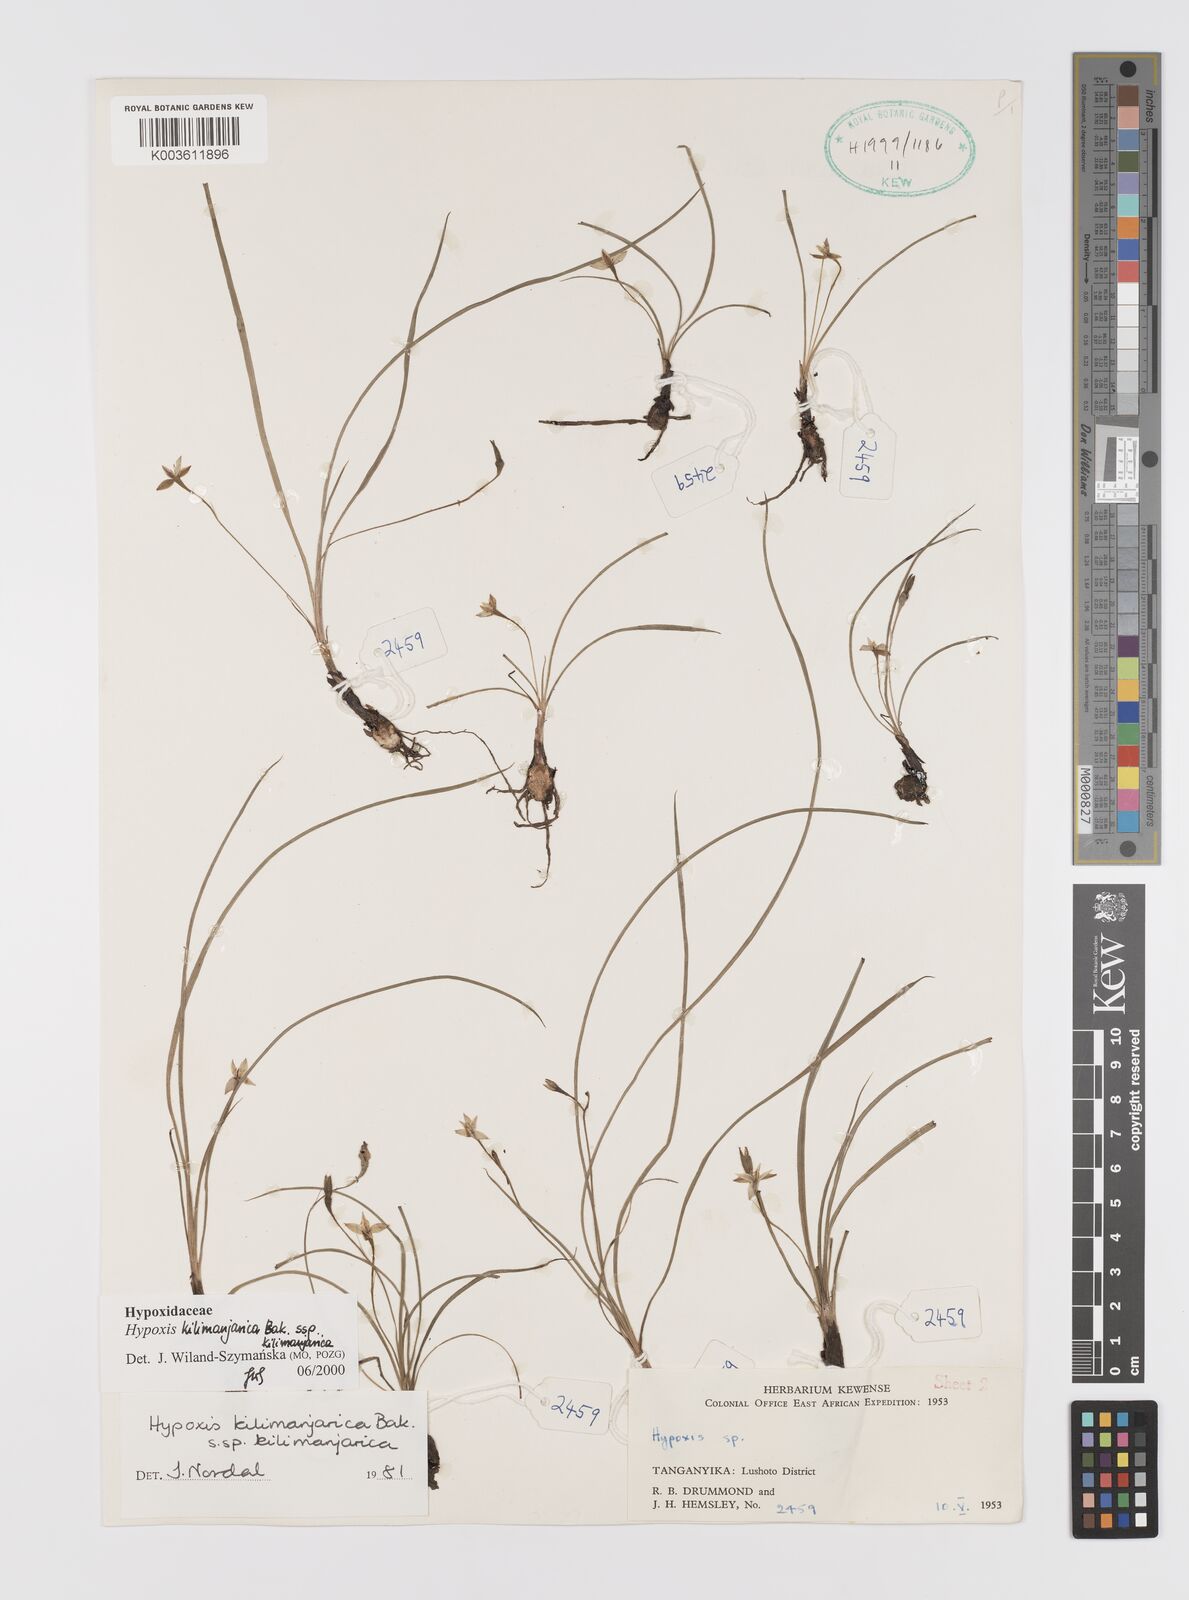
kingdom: Plantae
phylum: Tracheophyta
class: Liliopsida
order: Asparagales
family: Hypoxidaceae
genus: Hypoxis
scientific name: Hypoxis kilimanjarica
